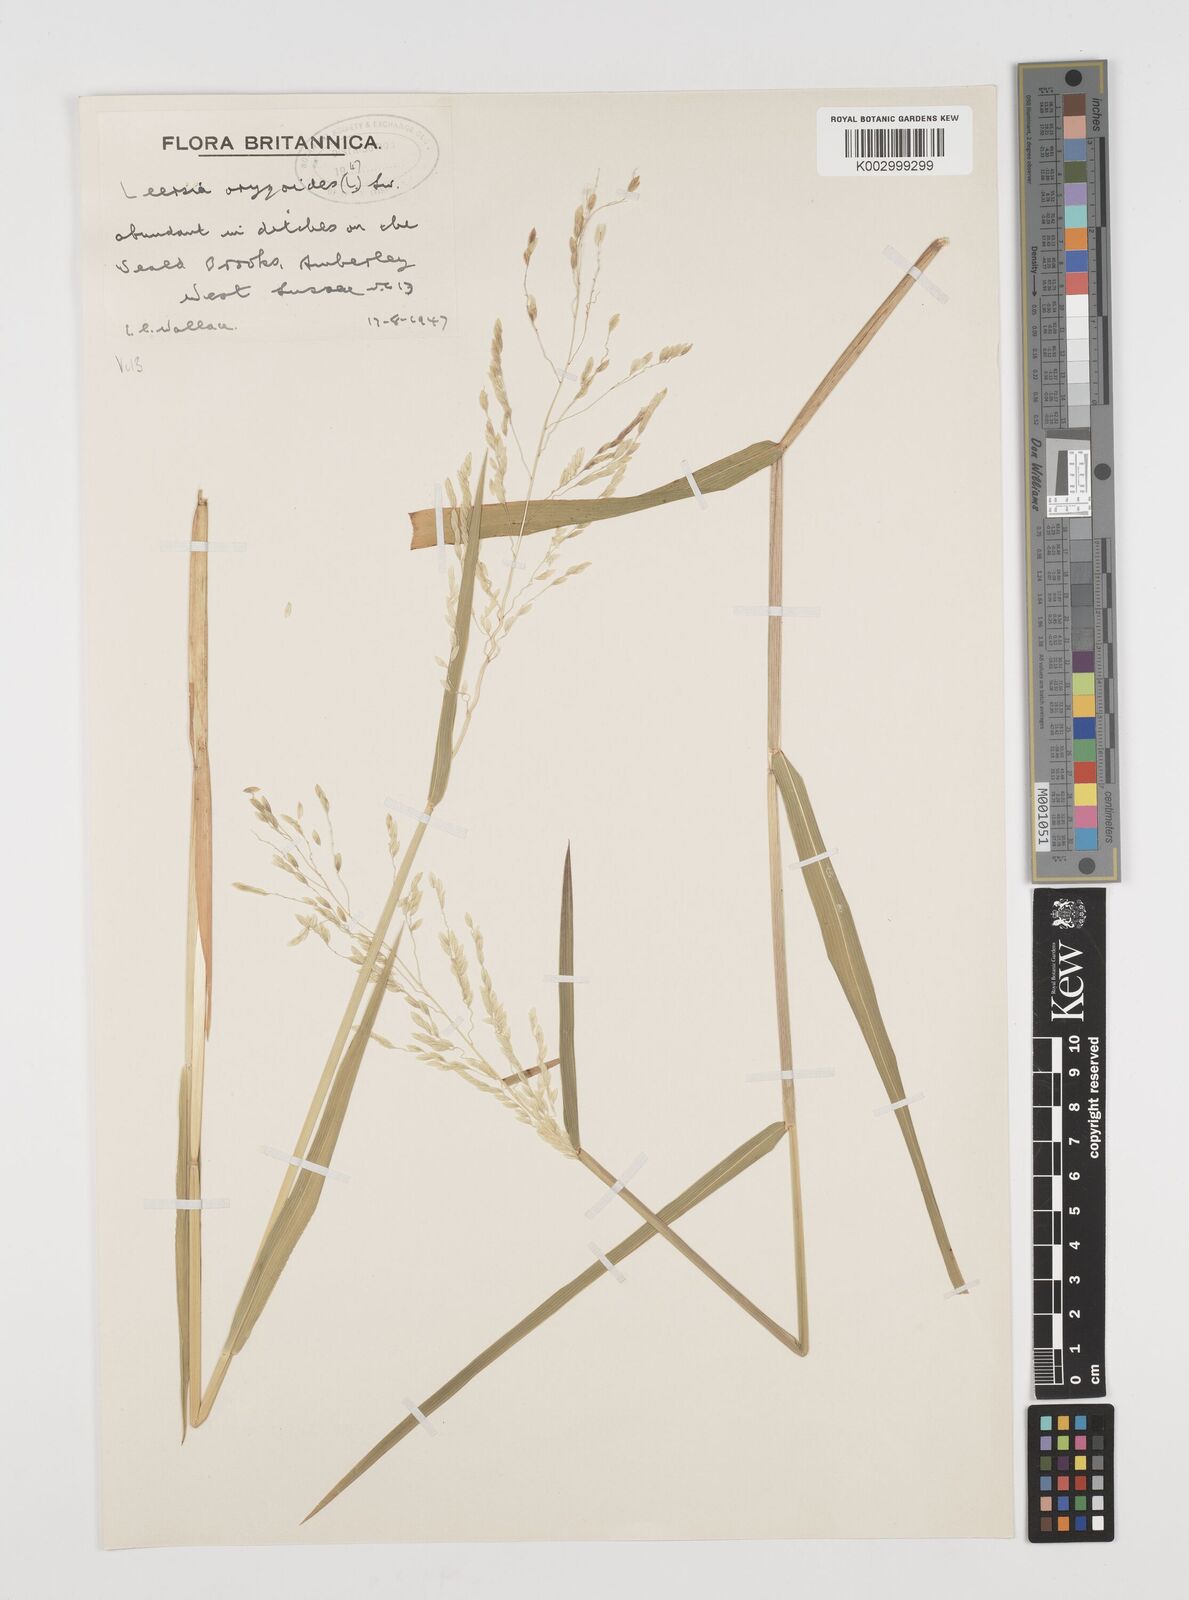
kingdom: Plantae
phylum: Tracheophyta
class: Liliopsida
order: Poales
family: Poaceae
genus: Leersia
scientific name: Leersia oryzoides
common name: Cut-grass
